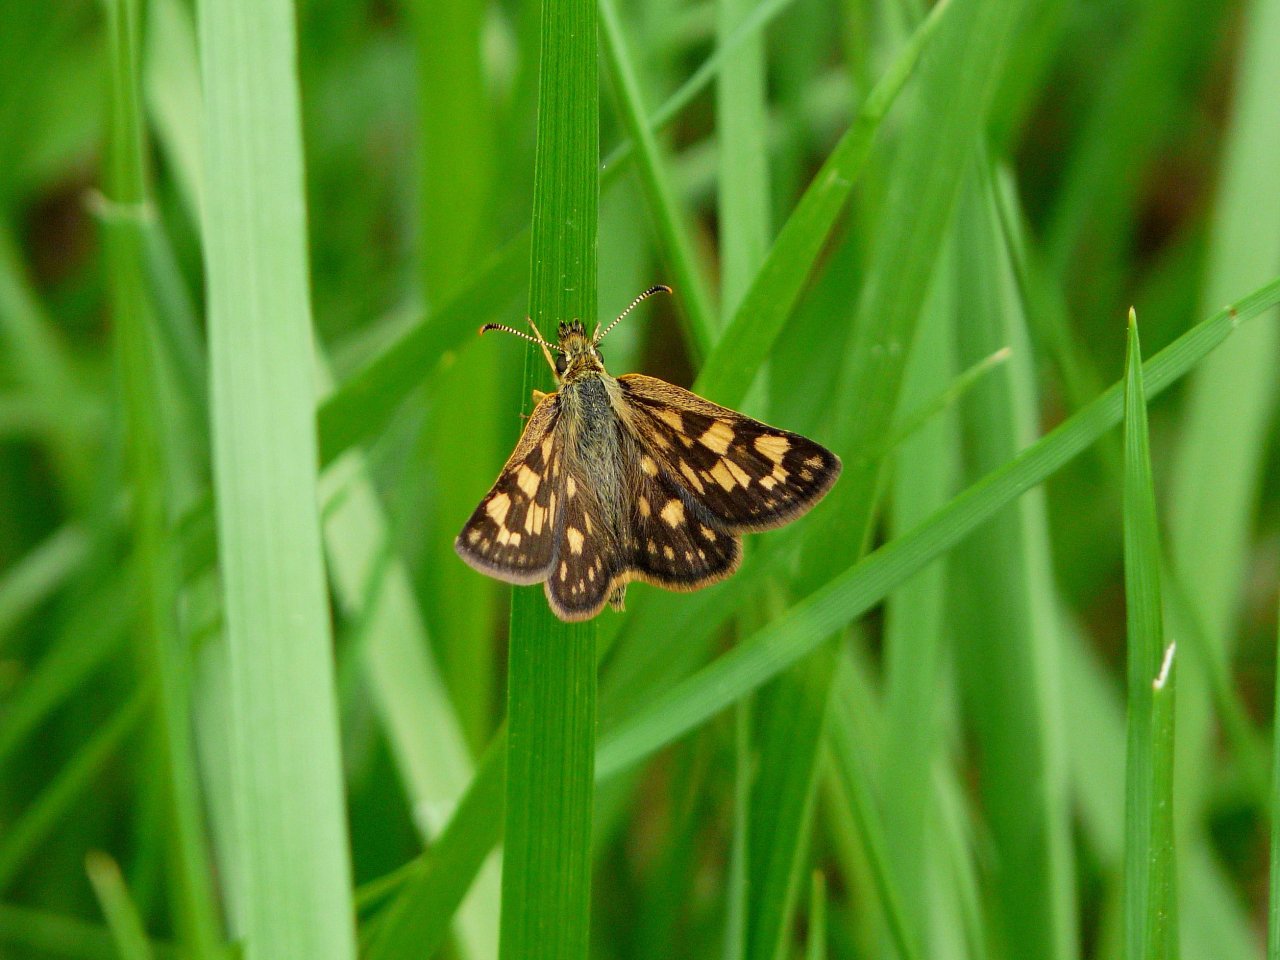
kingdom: Animalia
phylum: Arthropoda
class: Insecta
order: Lepidoptera
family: Hesperiidae
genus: Carterocephalus
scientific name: Carterocephalus palaemon
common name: Chequered Skipper
